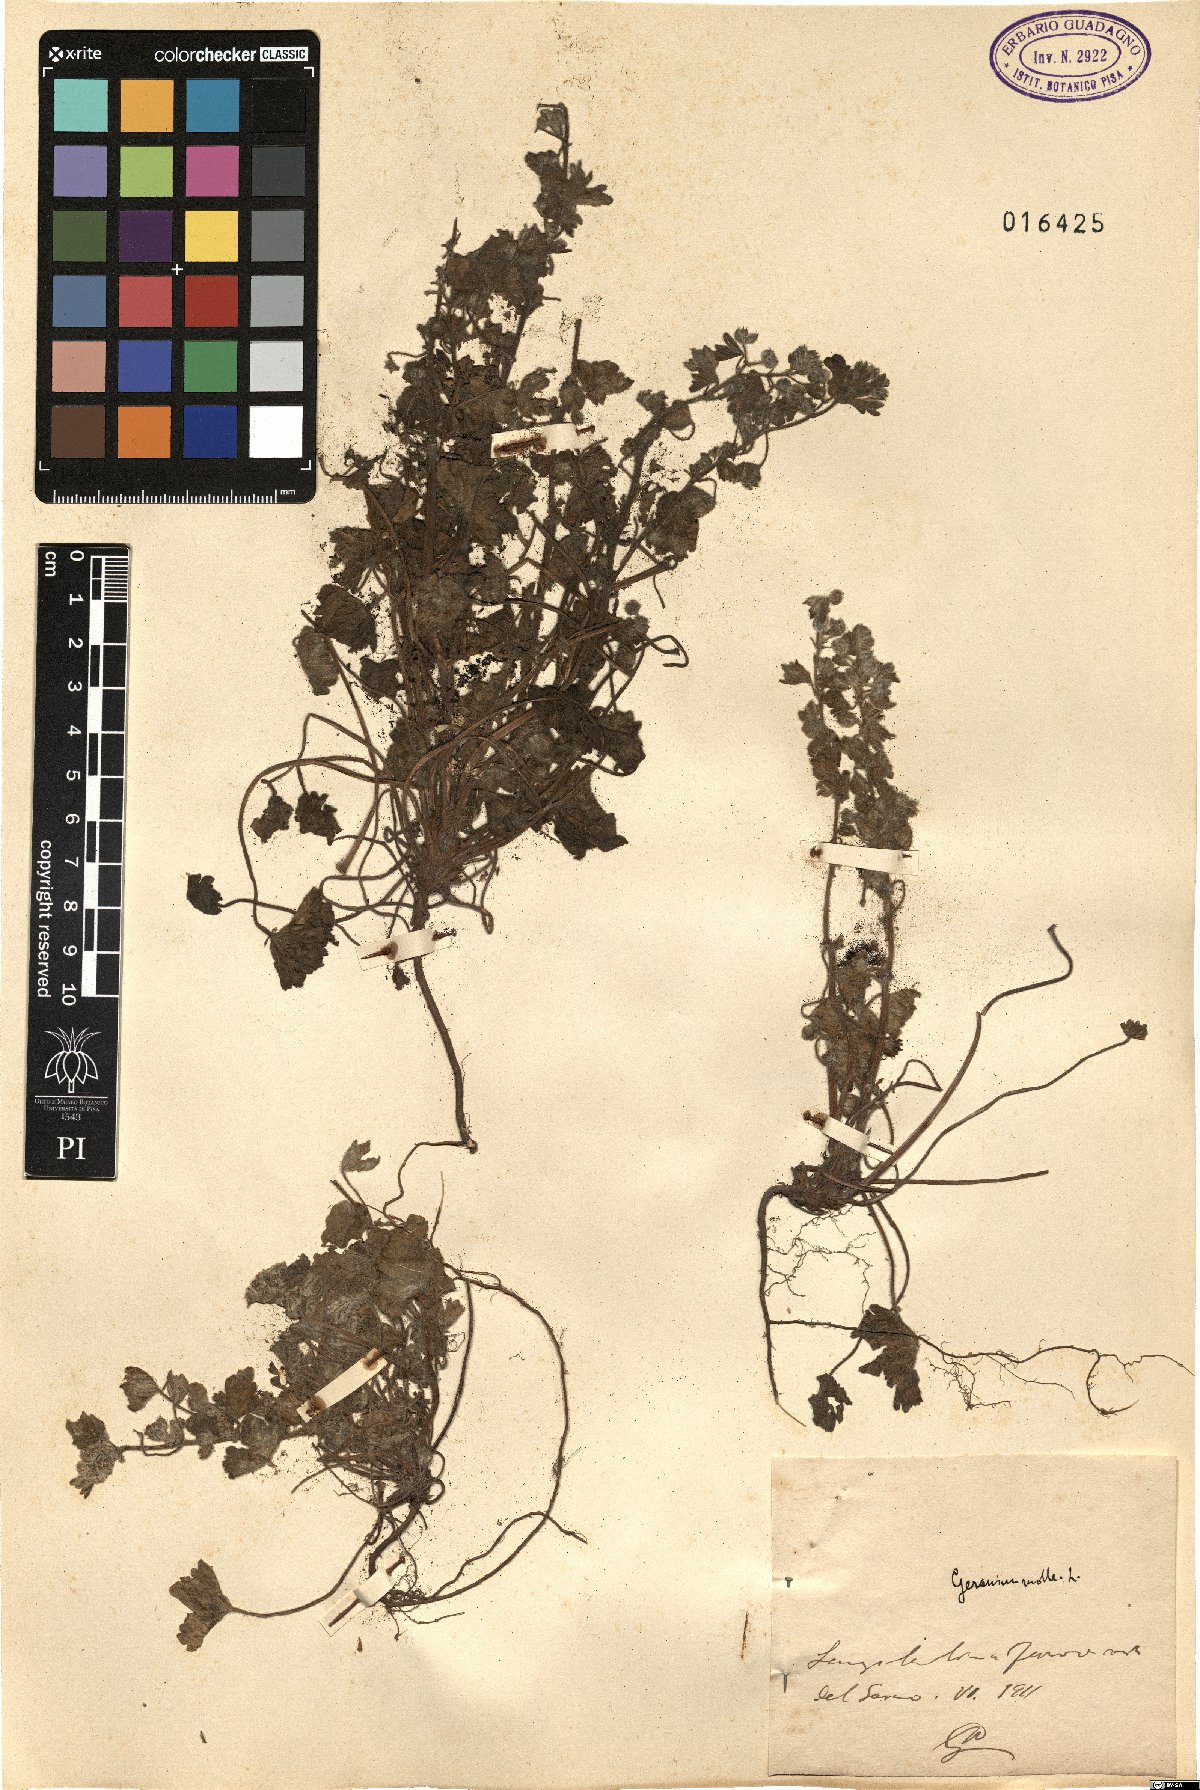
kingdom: Plantae
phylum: Tracheophyta
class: Magnoliopsida
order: Geraniales
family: Geraniaceae
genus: Geranium
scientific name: Geranium molle
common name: Dove's-foot crane's-bill
